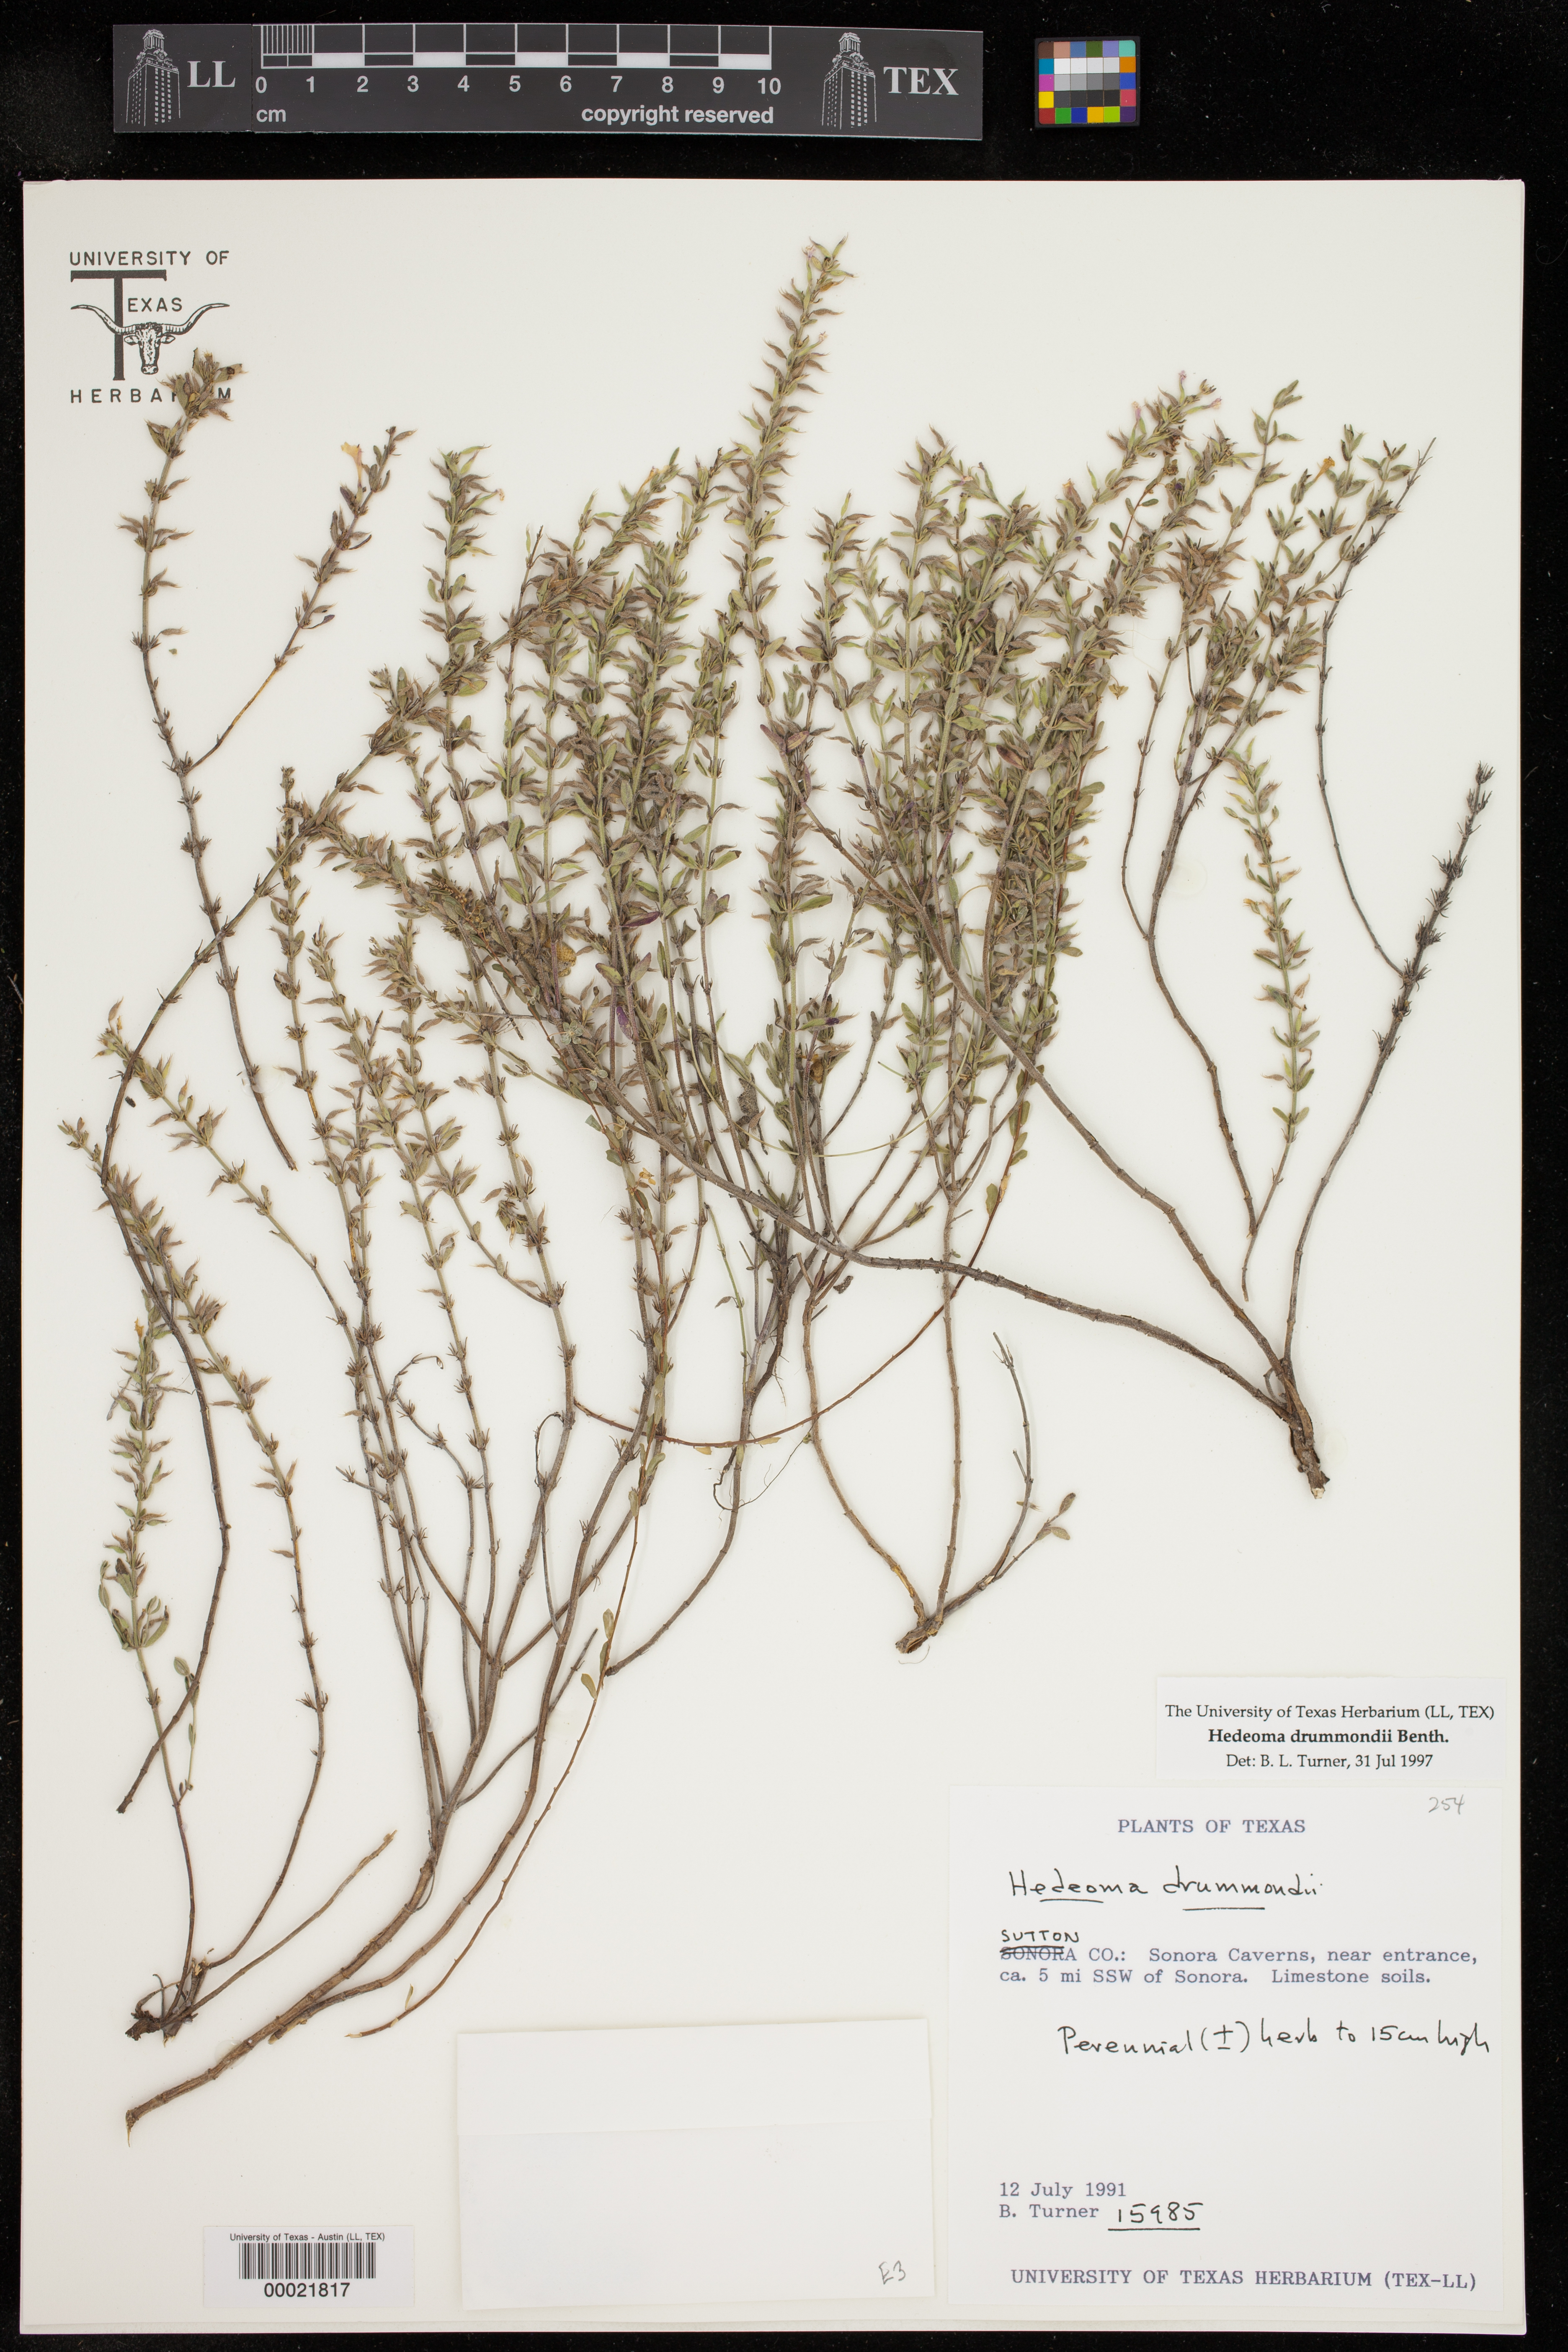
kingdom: Plantae
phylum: Tracheophyta
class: Magnoliopsida
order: Lamiales
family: Lamiaceae
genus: Hedeoma
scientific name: Hedeoma drummondii
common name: New mexico pennyroyal
